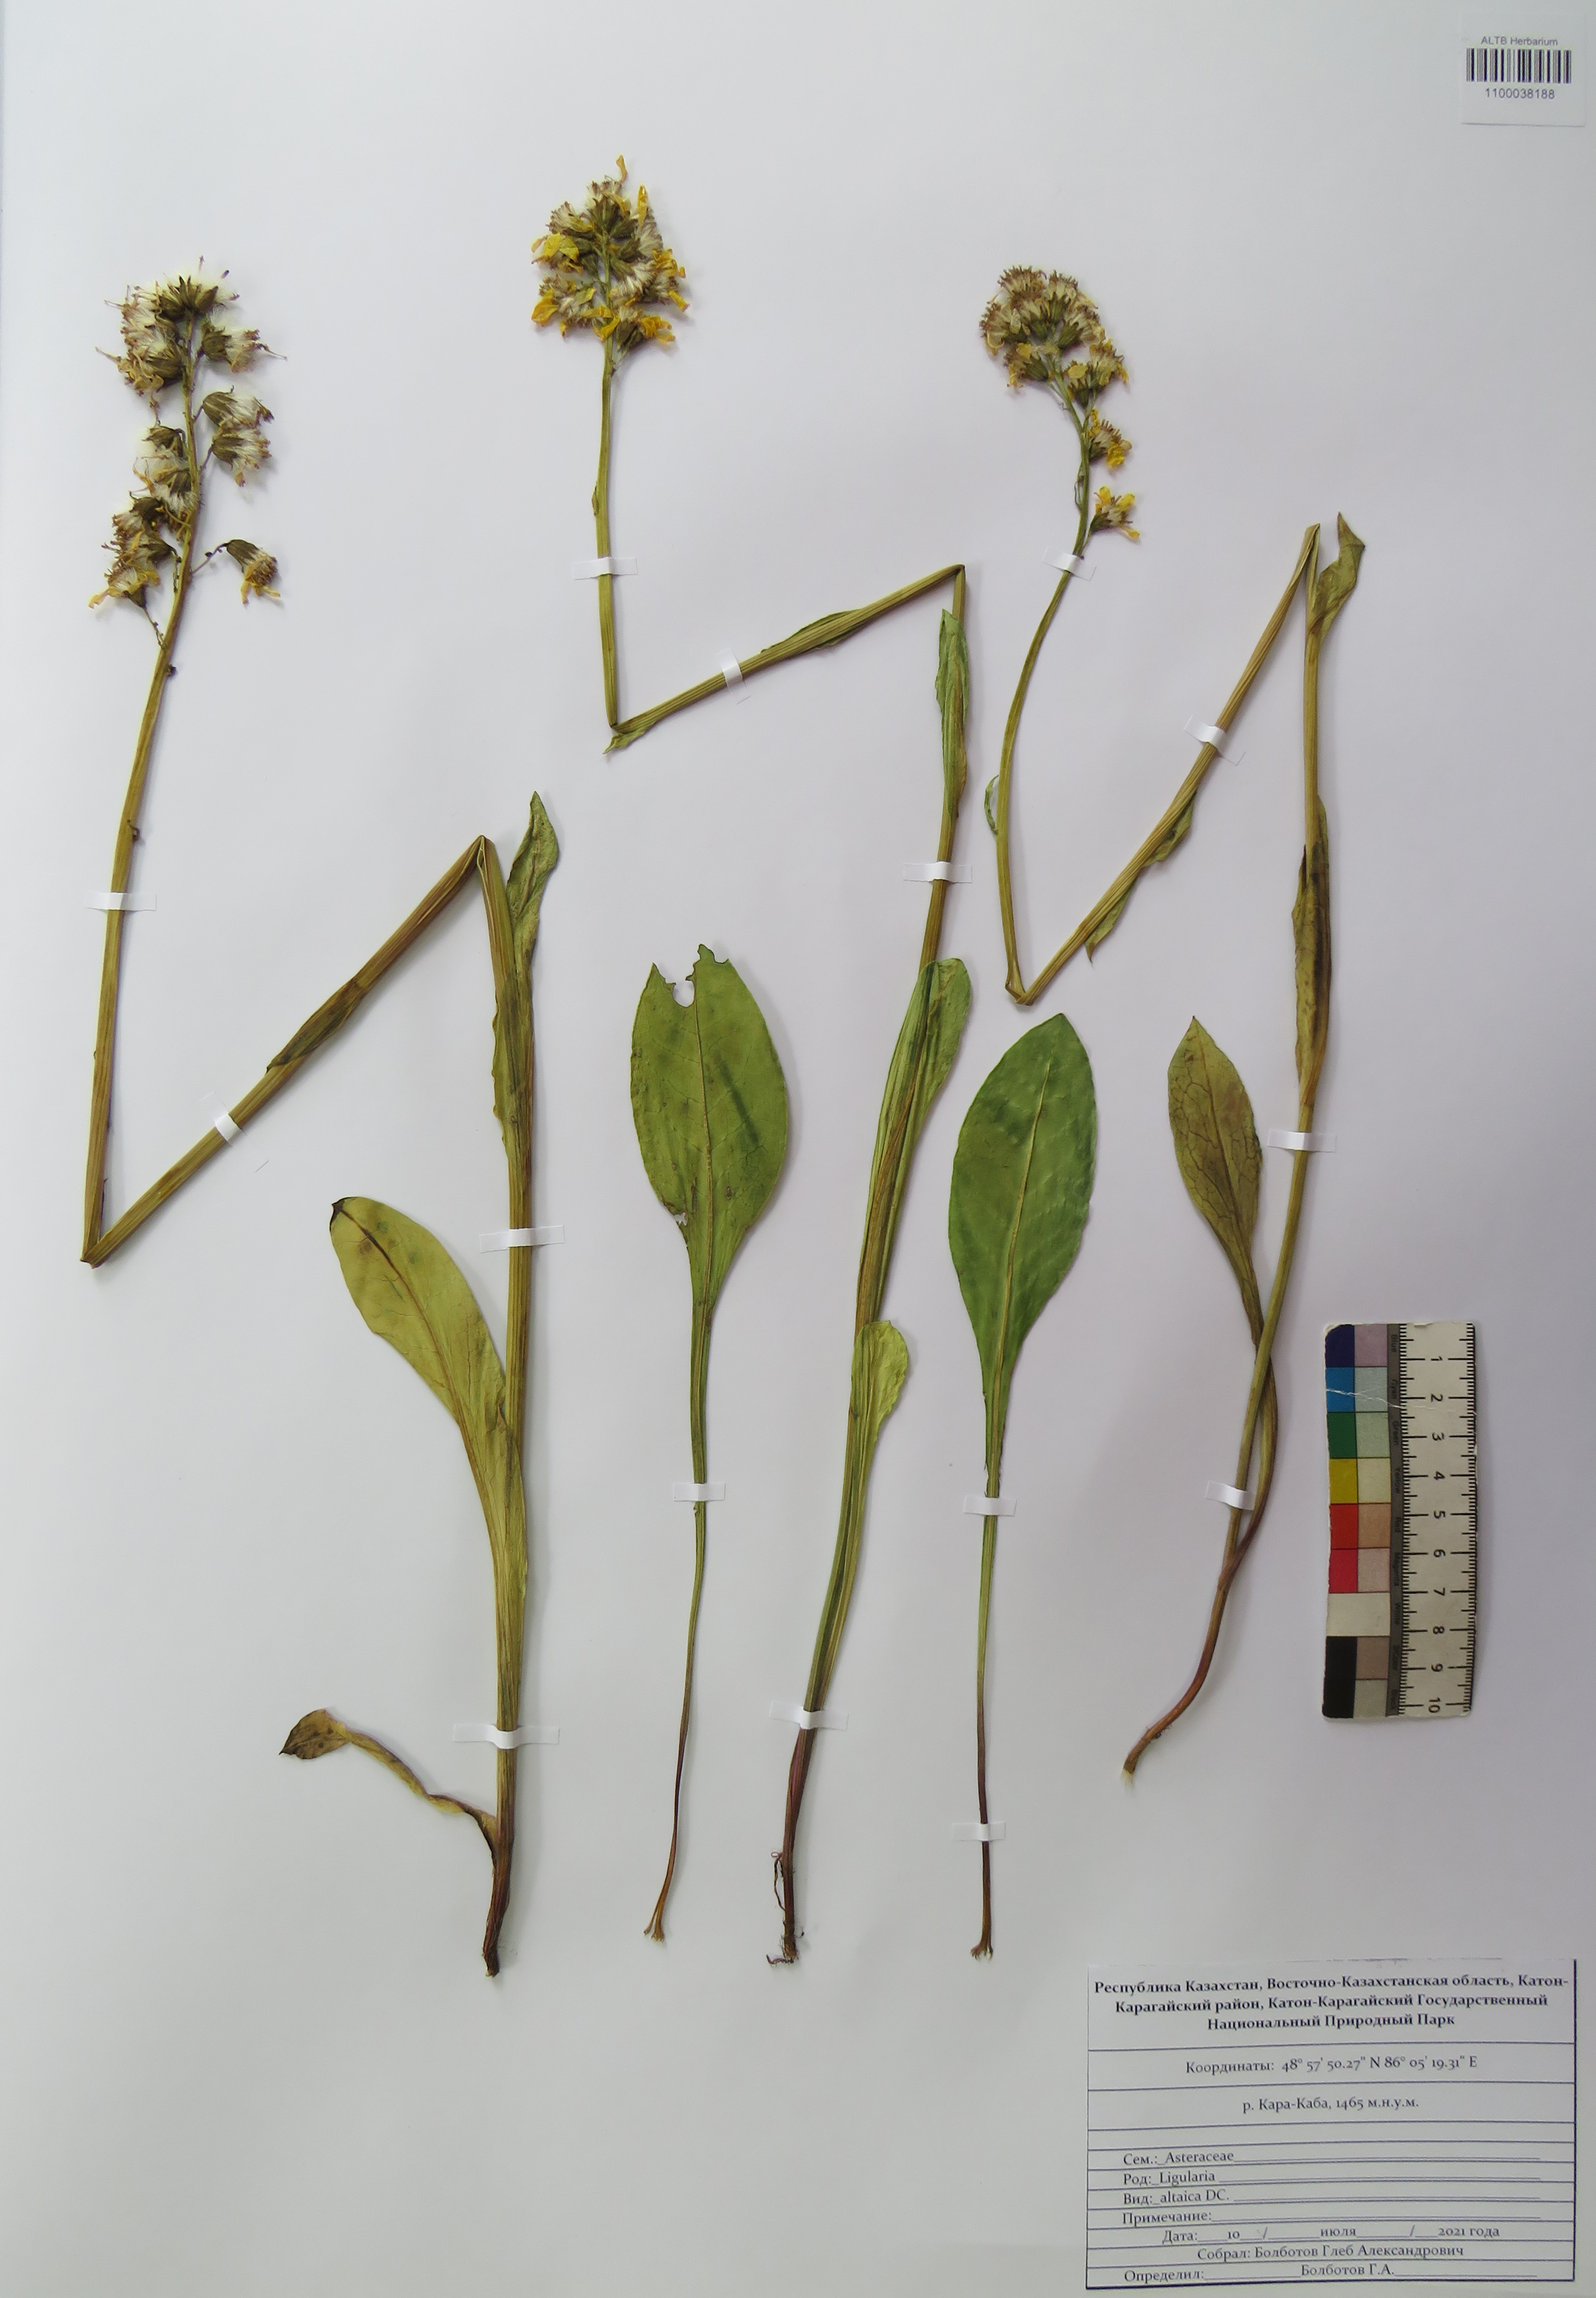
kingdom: Plantae
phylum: Tracheophyta
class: Magnoliopsida
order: Asterales
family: Asteraceae
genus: Ligularia
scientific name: Ligularia altaica
